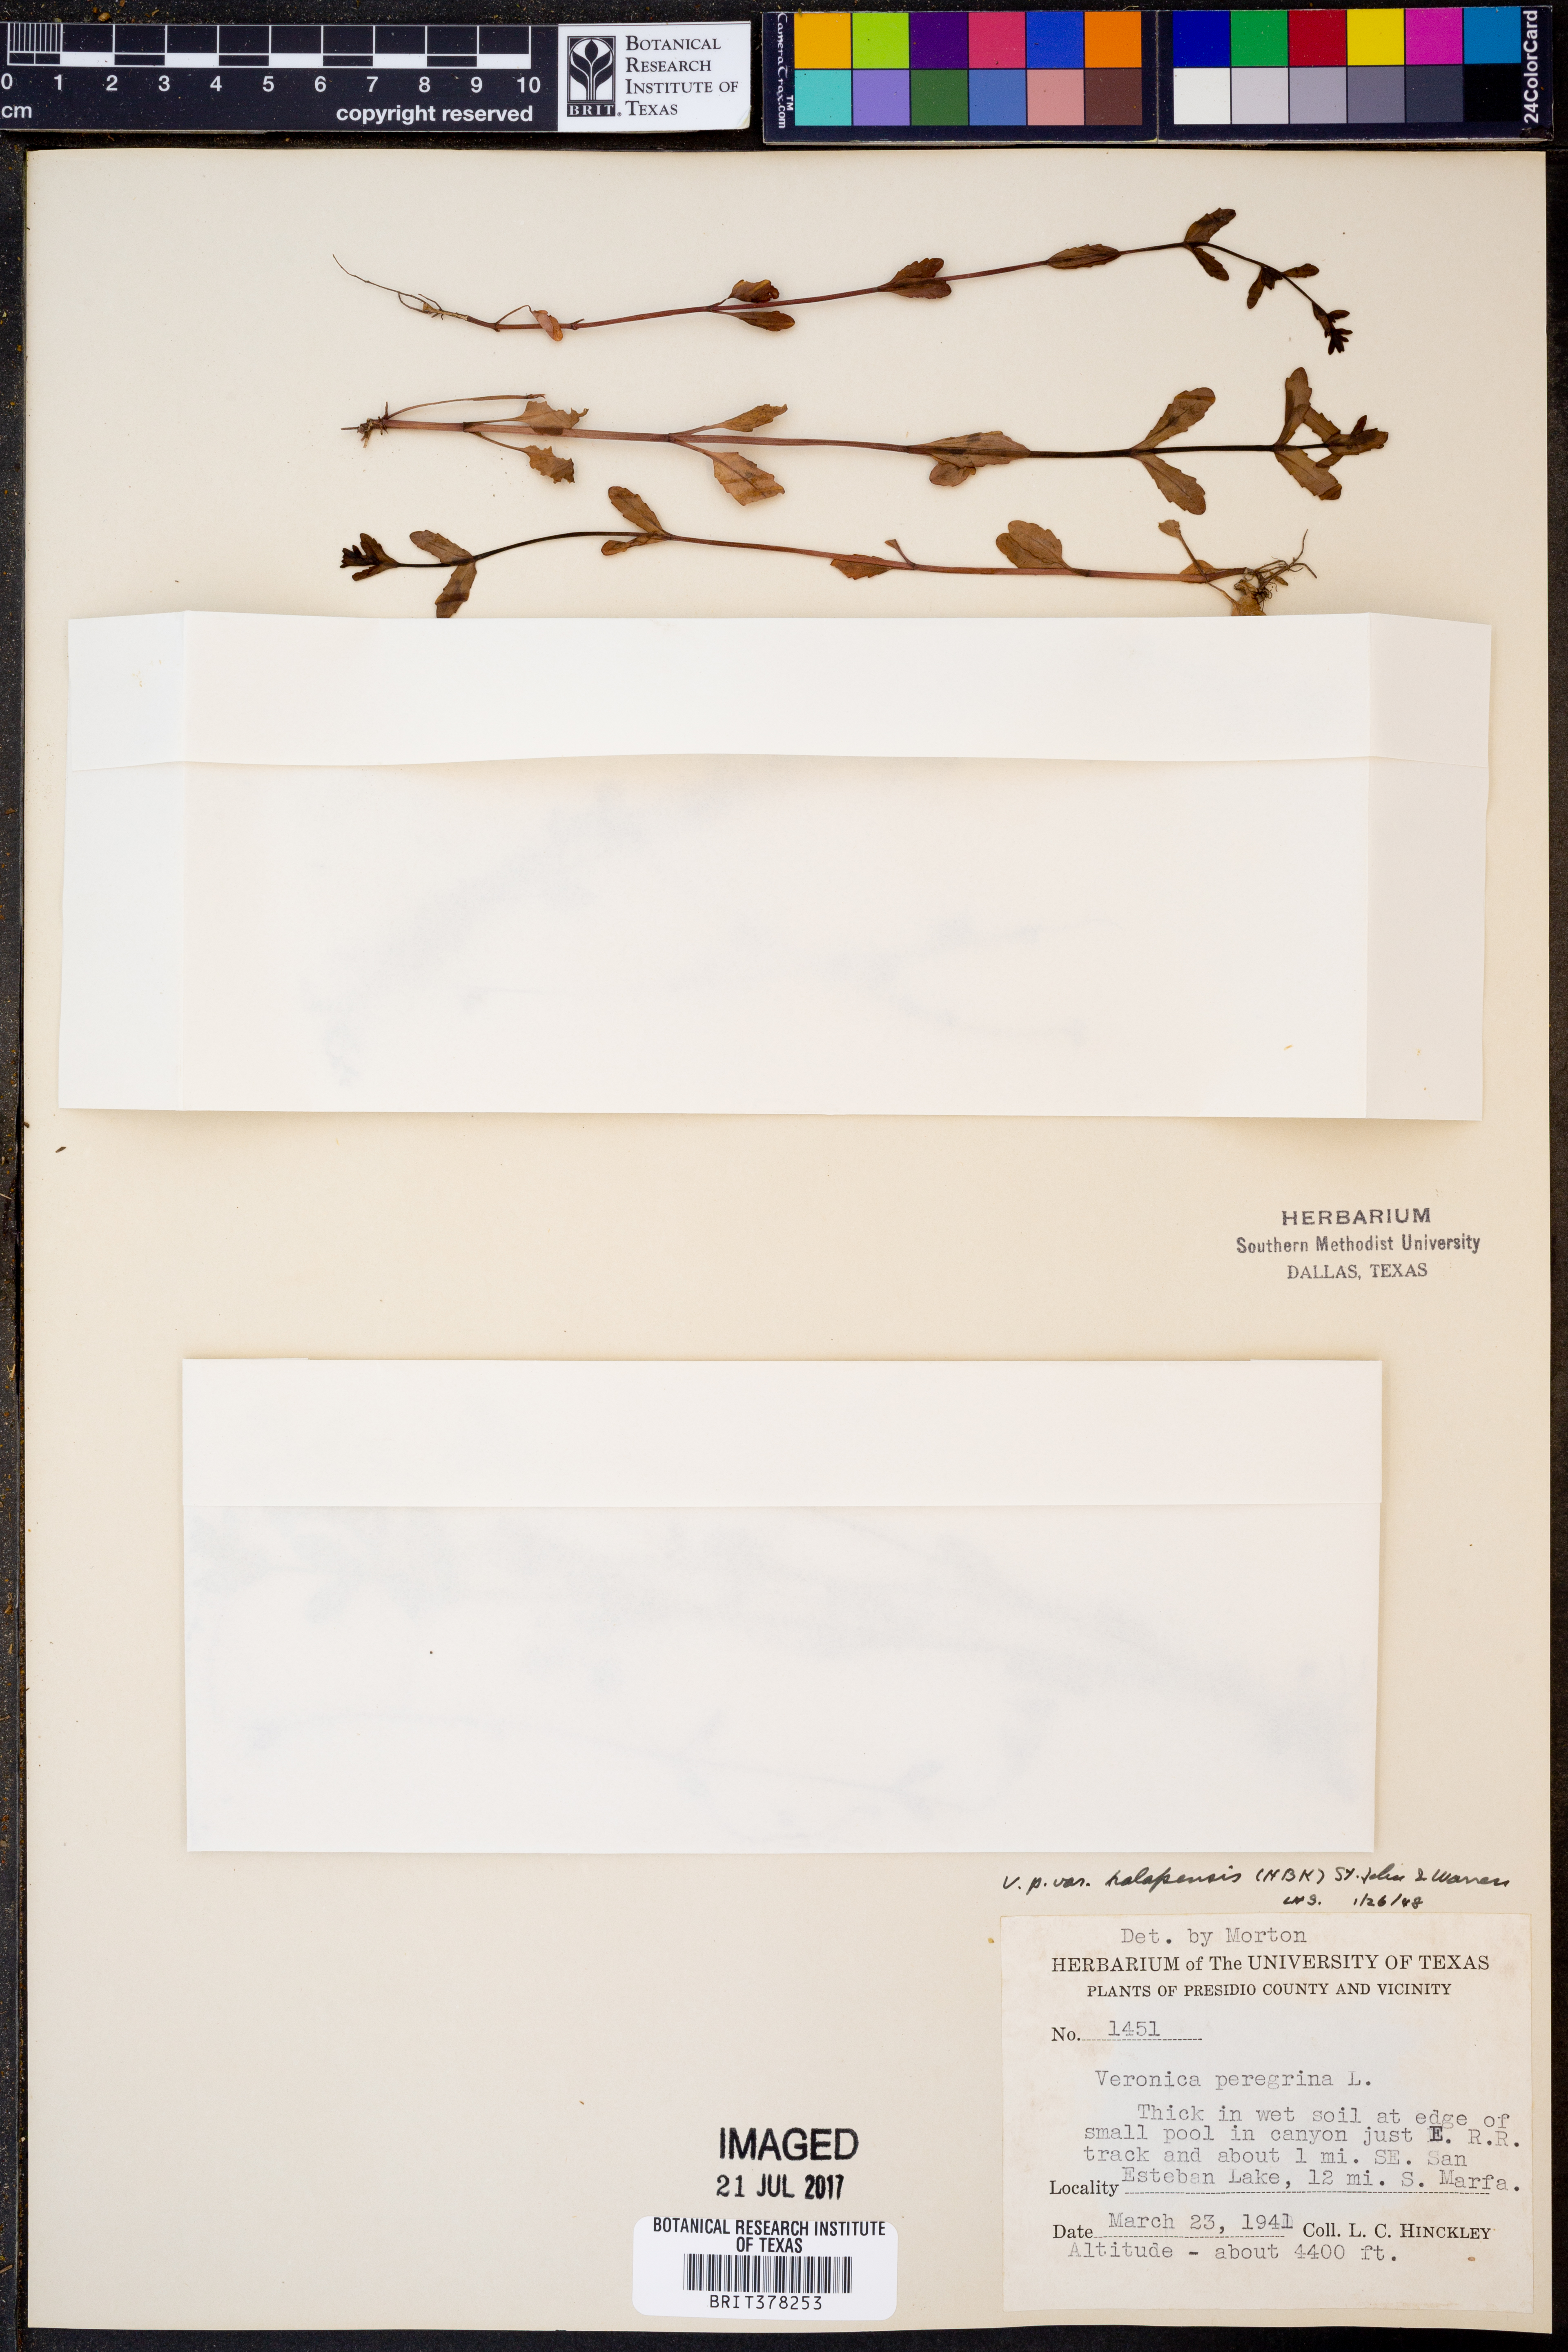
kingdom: Plantae
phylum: Tracheophyta
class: Magnoliopsida
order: Lamiales
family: Plantaginaceae
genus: Veronica
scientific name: Veronica peregrina
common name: Neckweed
